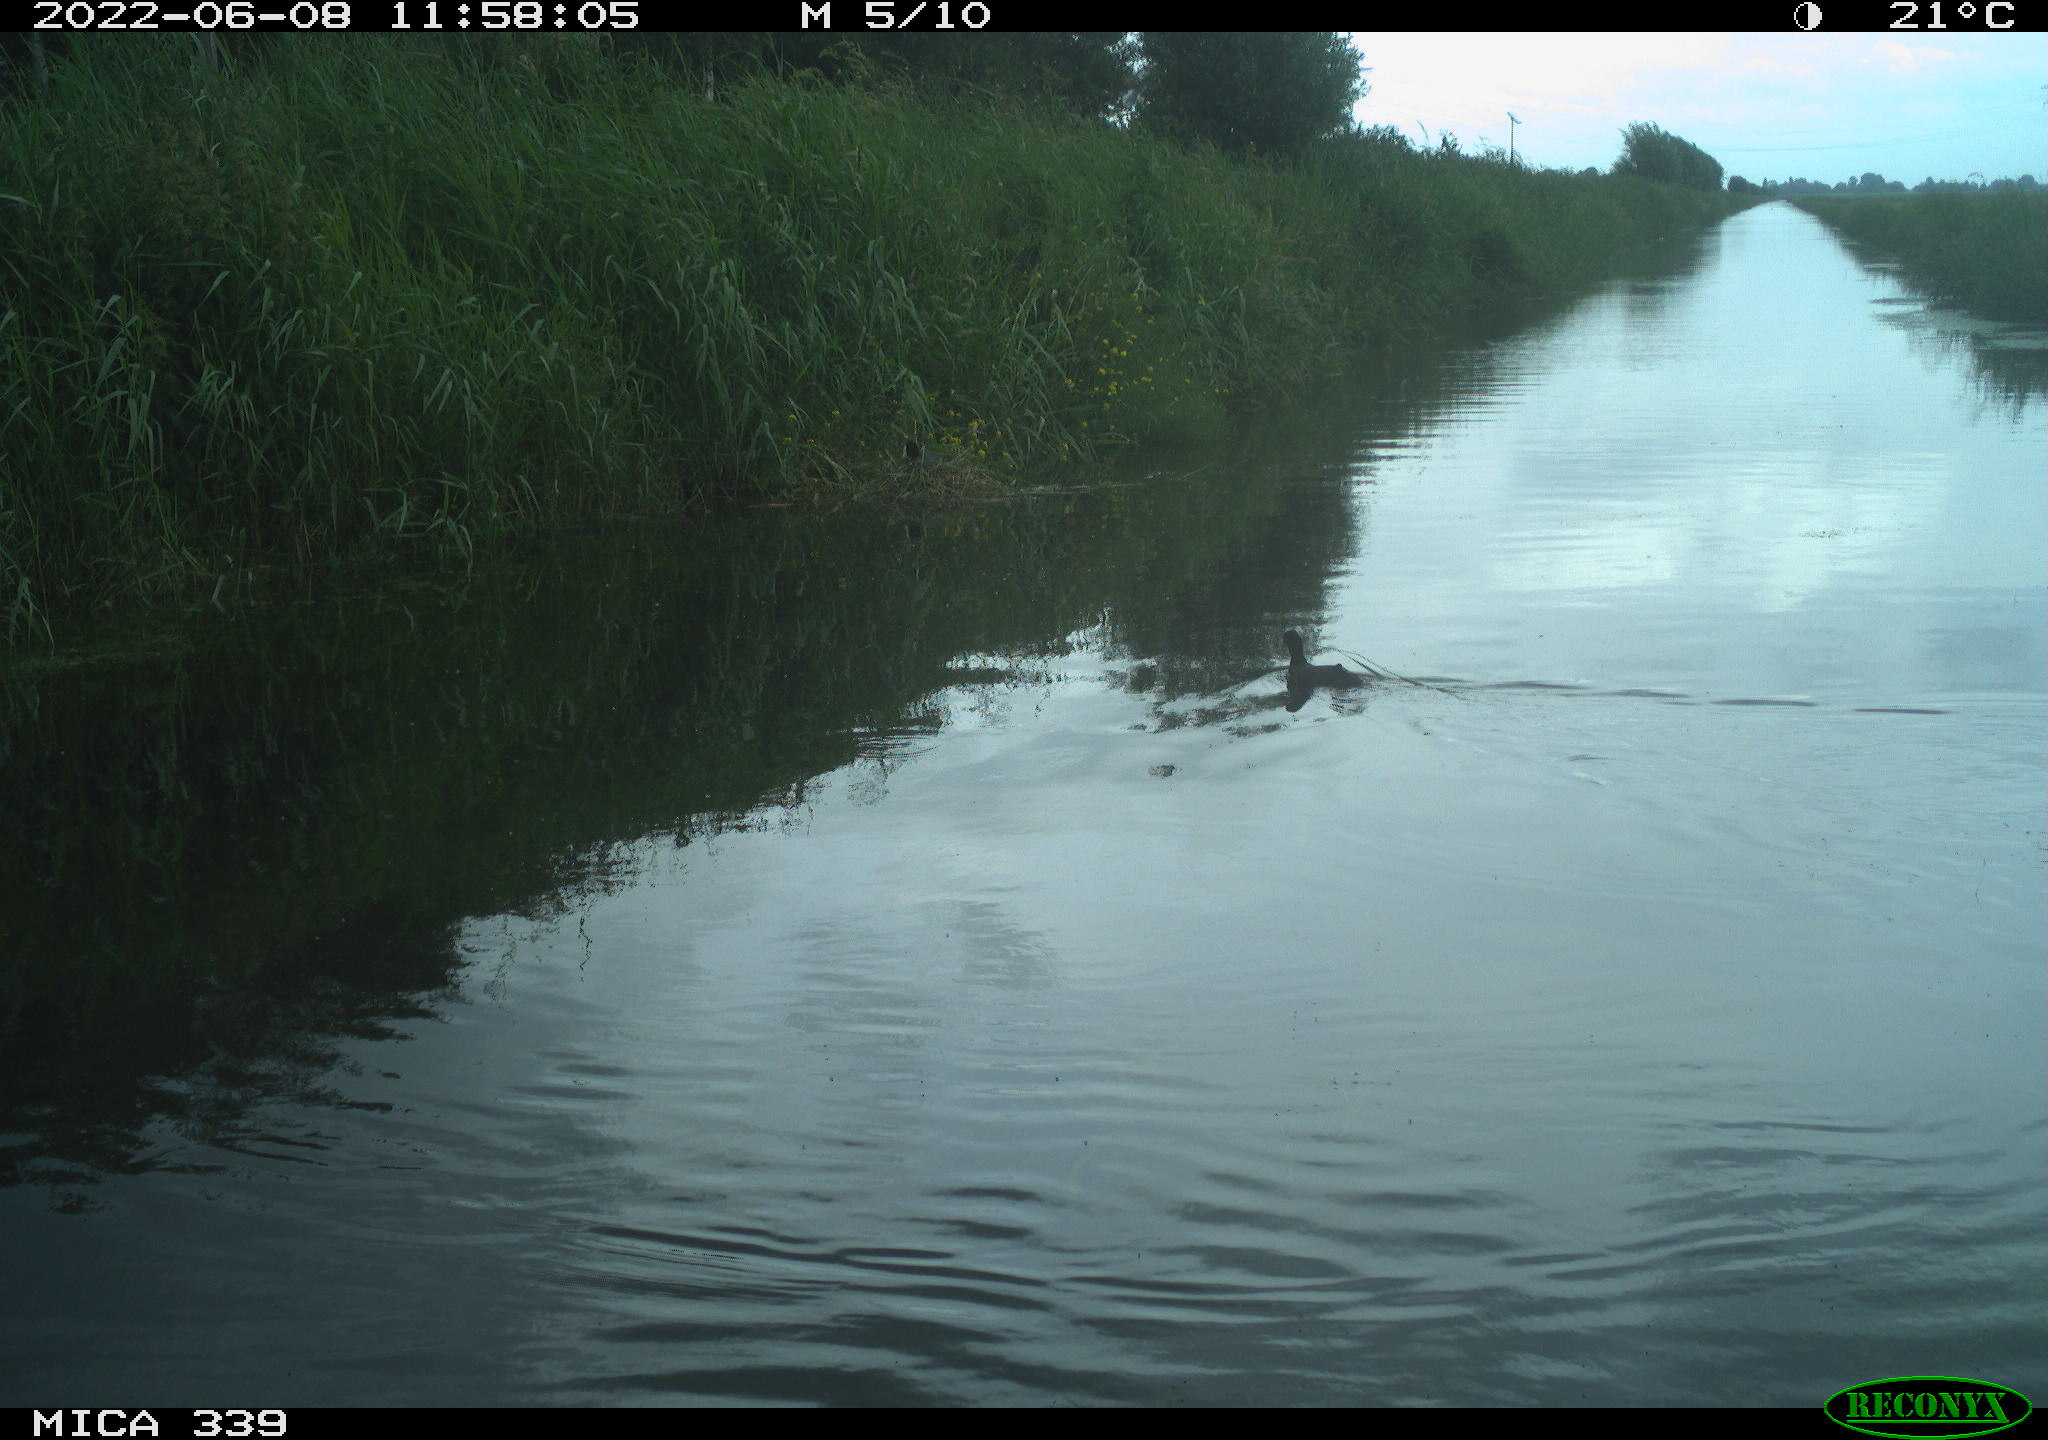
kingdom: Animalia
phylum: Chordata
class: Aves
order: Gruiformes
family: Rallidae
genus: Fulica
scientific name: Fulica atra
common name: Eurasian coot
